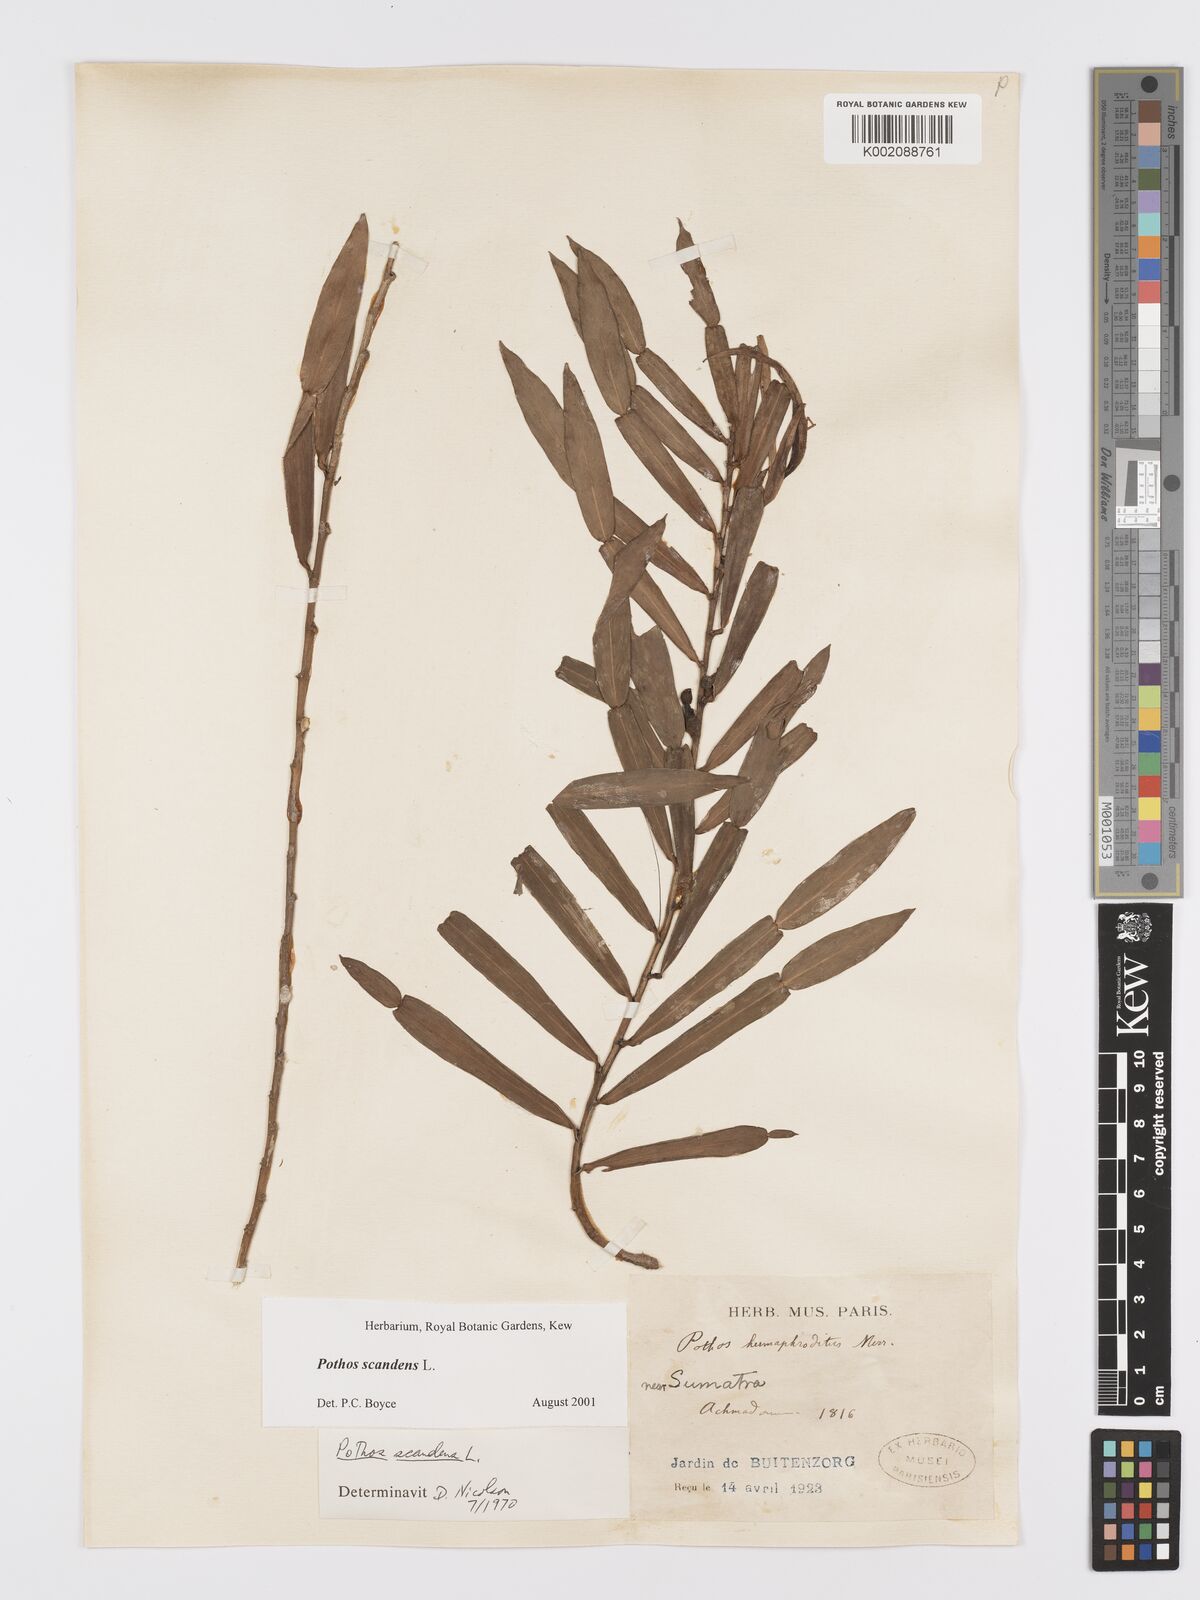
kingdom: Plantae
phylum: Tracheophyta
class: Liliopsida
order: Alismatales
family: Araceae
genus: Pothos
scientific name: Pothos scandens
